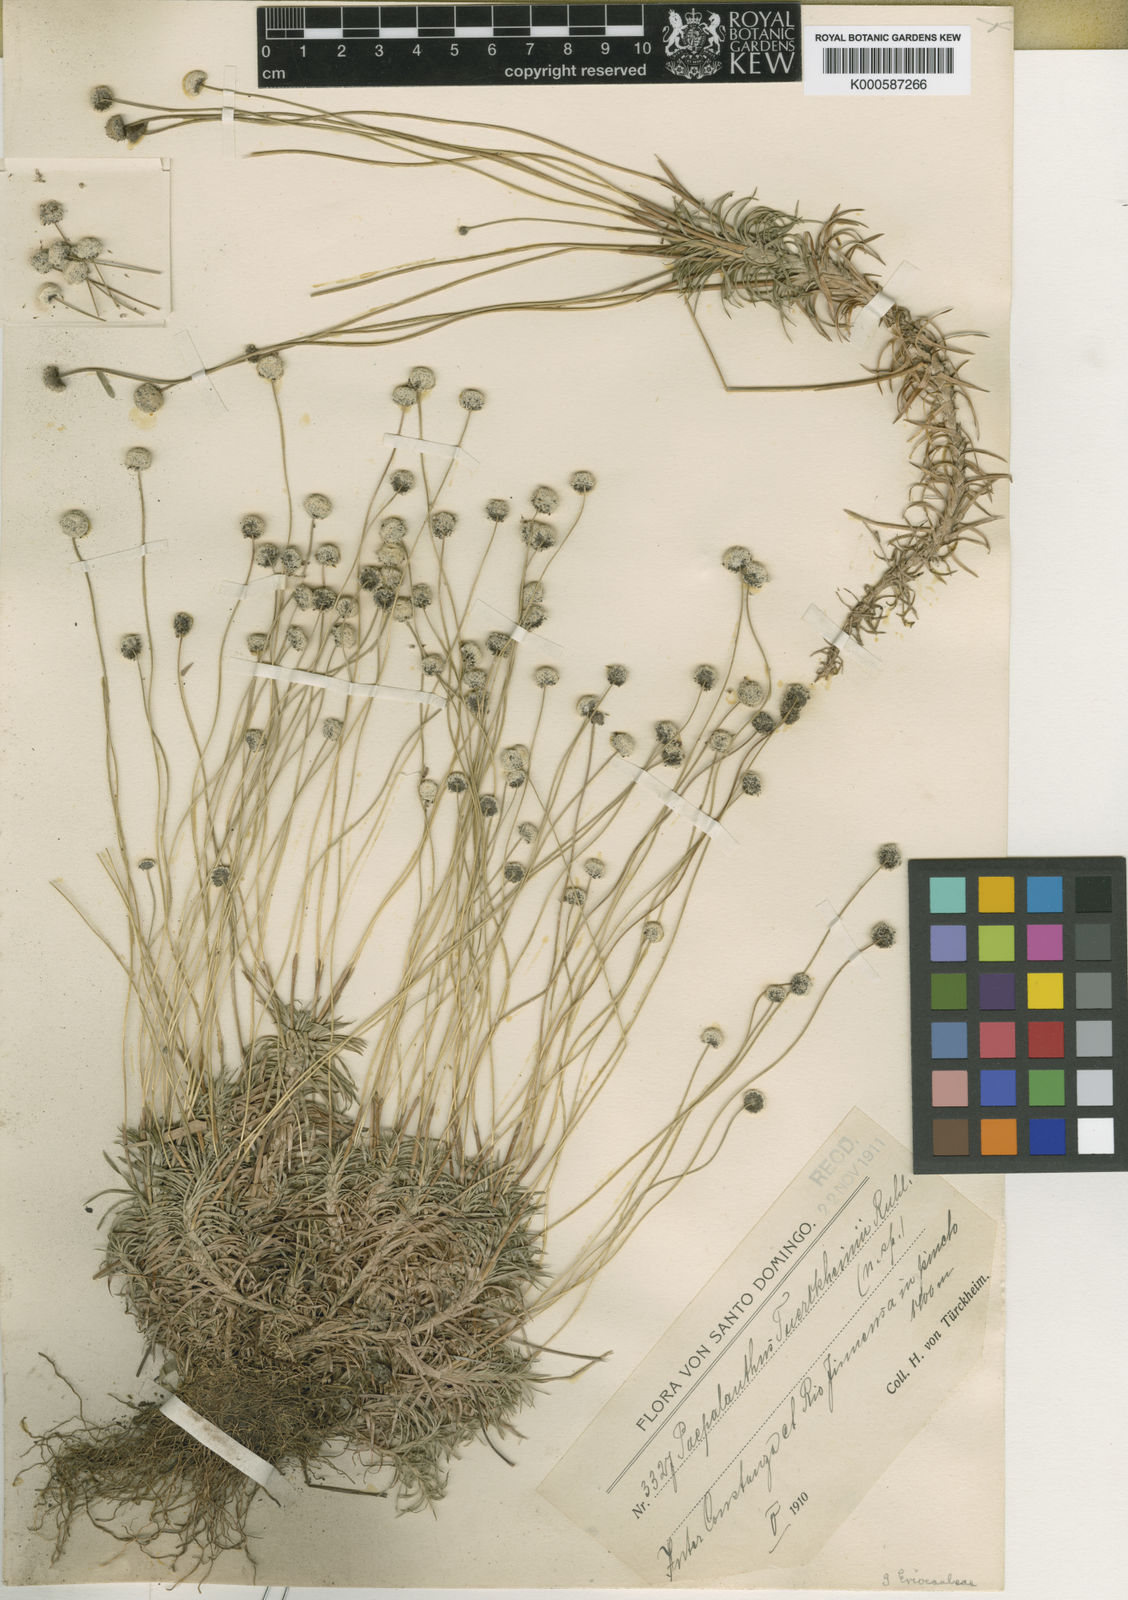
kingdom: Plantae
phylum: Tracheophyta
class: Liliopsida
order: Poales
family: Eriocaulaceae
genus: Paepalanthus
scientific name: Paepalanthus repens
